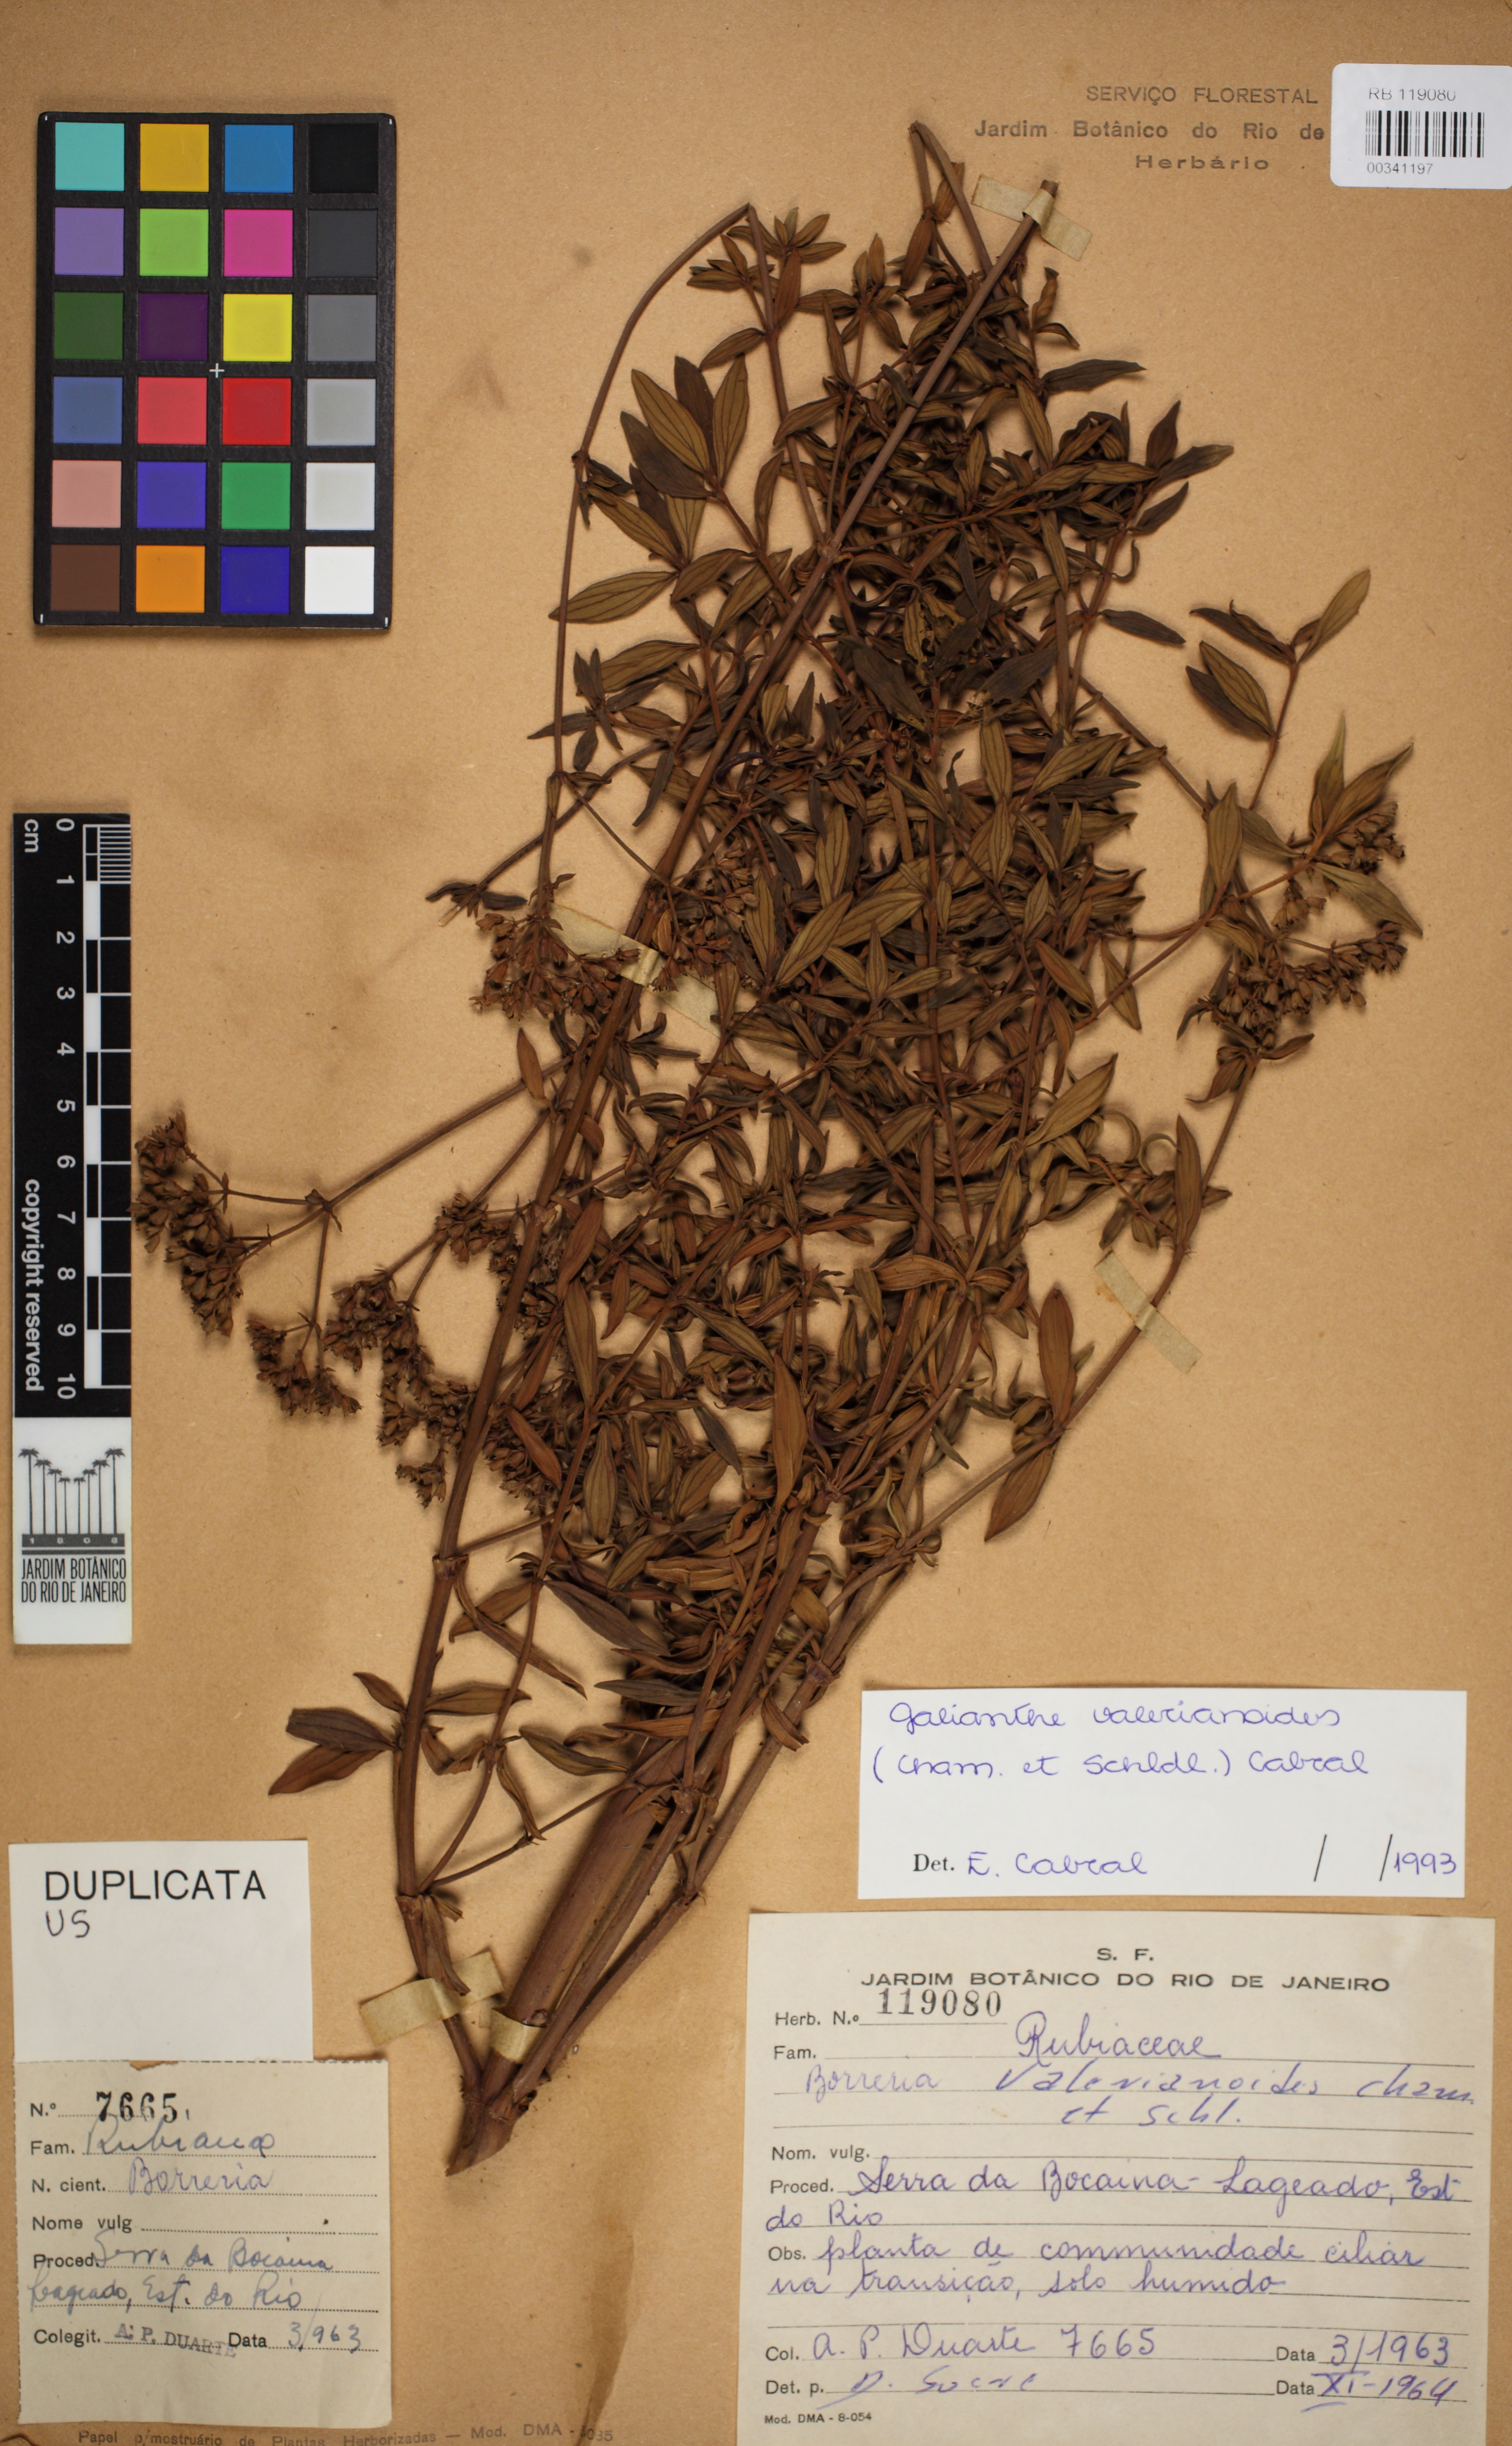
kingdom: Plantae
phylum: Tracheophyta
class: Magnoliopsida
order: Gentianales
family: Rubiaceae
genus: Galianthe
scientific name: Galianthe valerianoides
